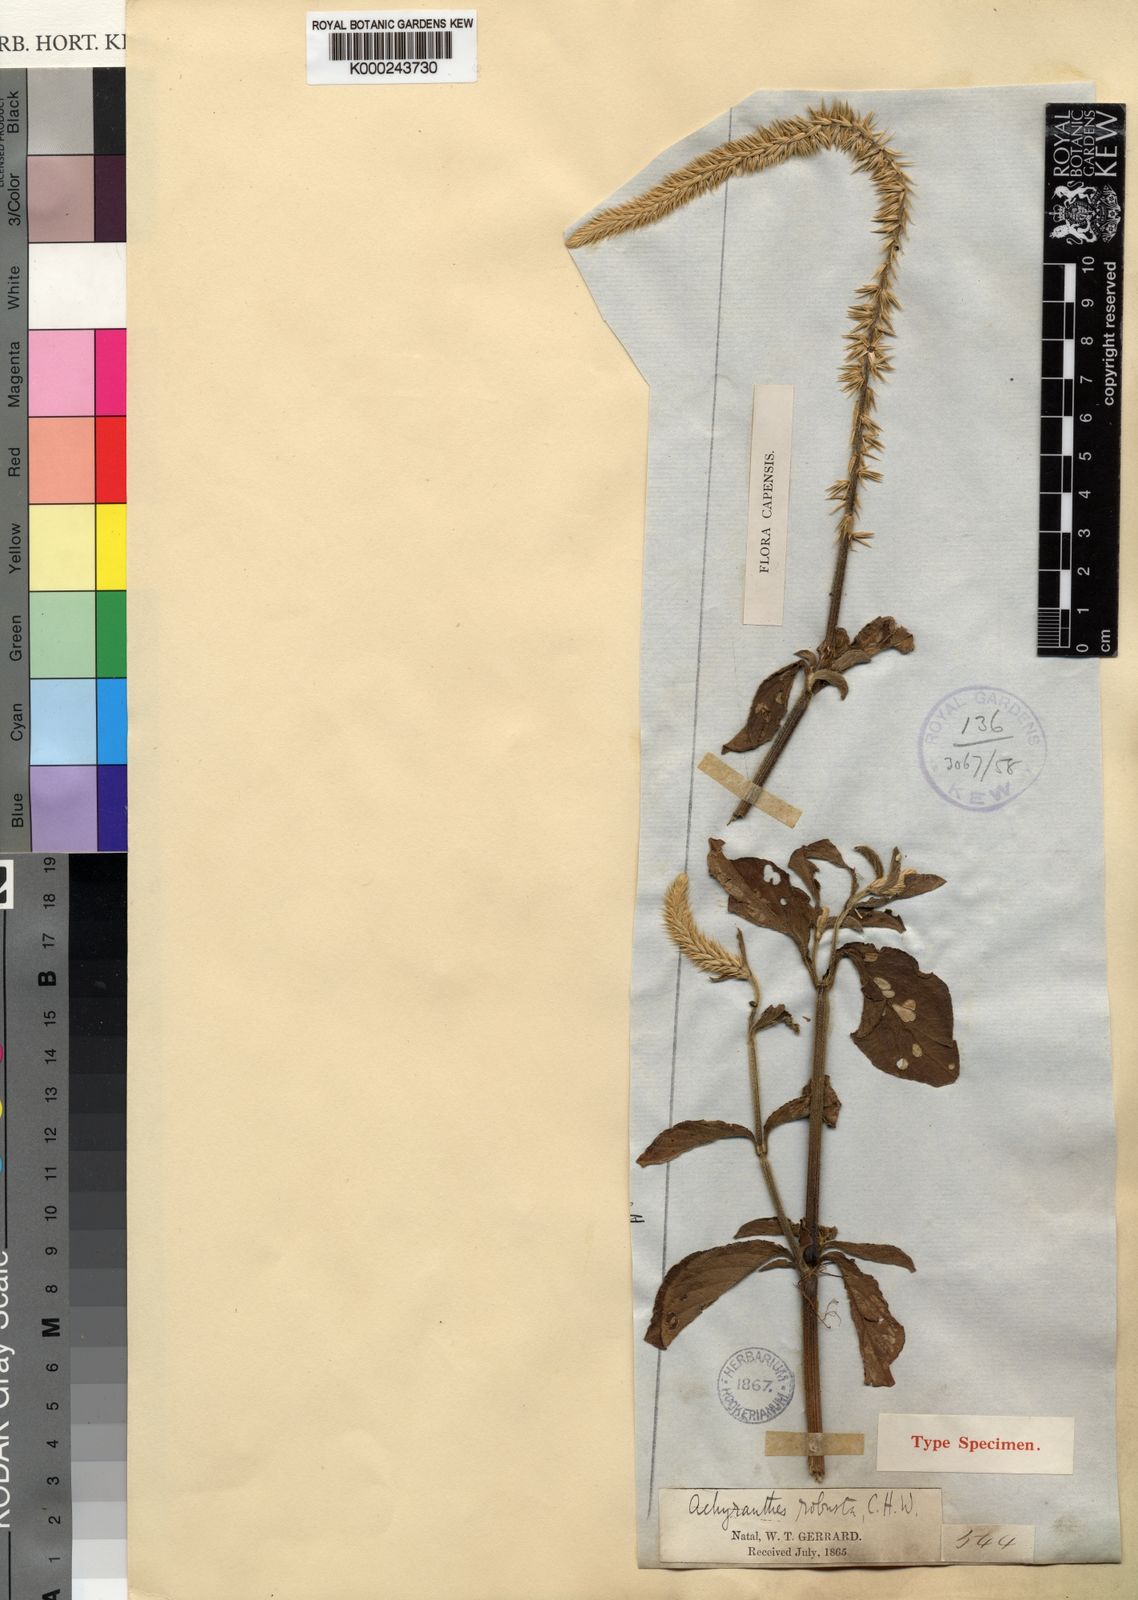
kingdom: Plantae
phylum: Tracheophyta
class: Magnoliopsida
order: Caryophyllales
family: Amaranthaceae
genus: Achyranthes
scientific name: Achyranthes aspera
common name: Devil's horsewhip
